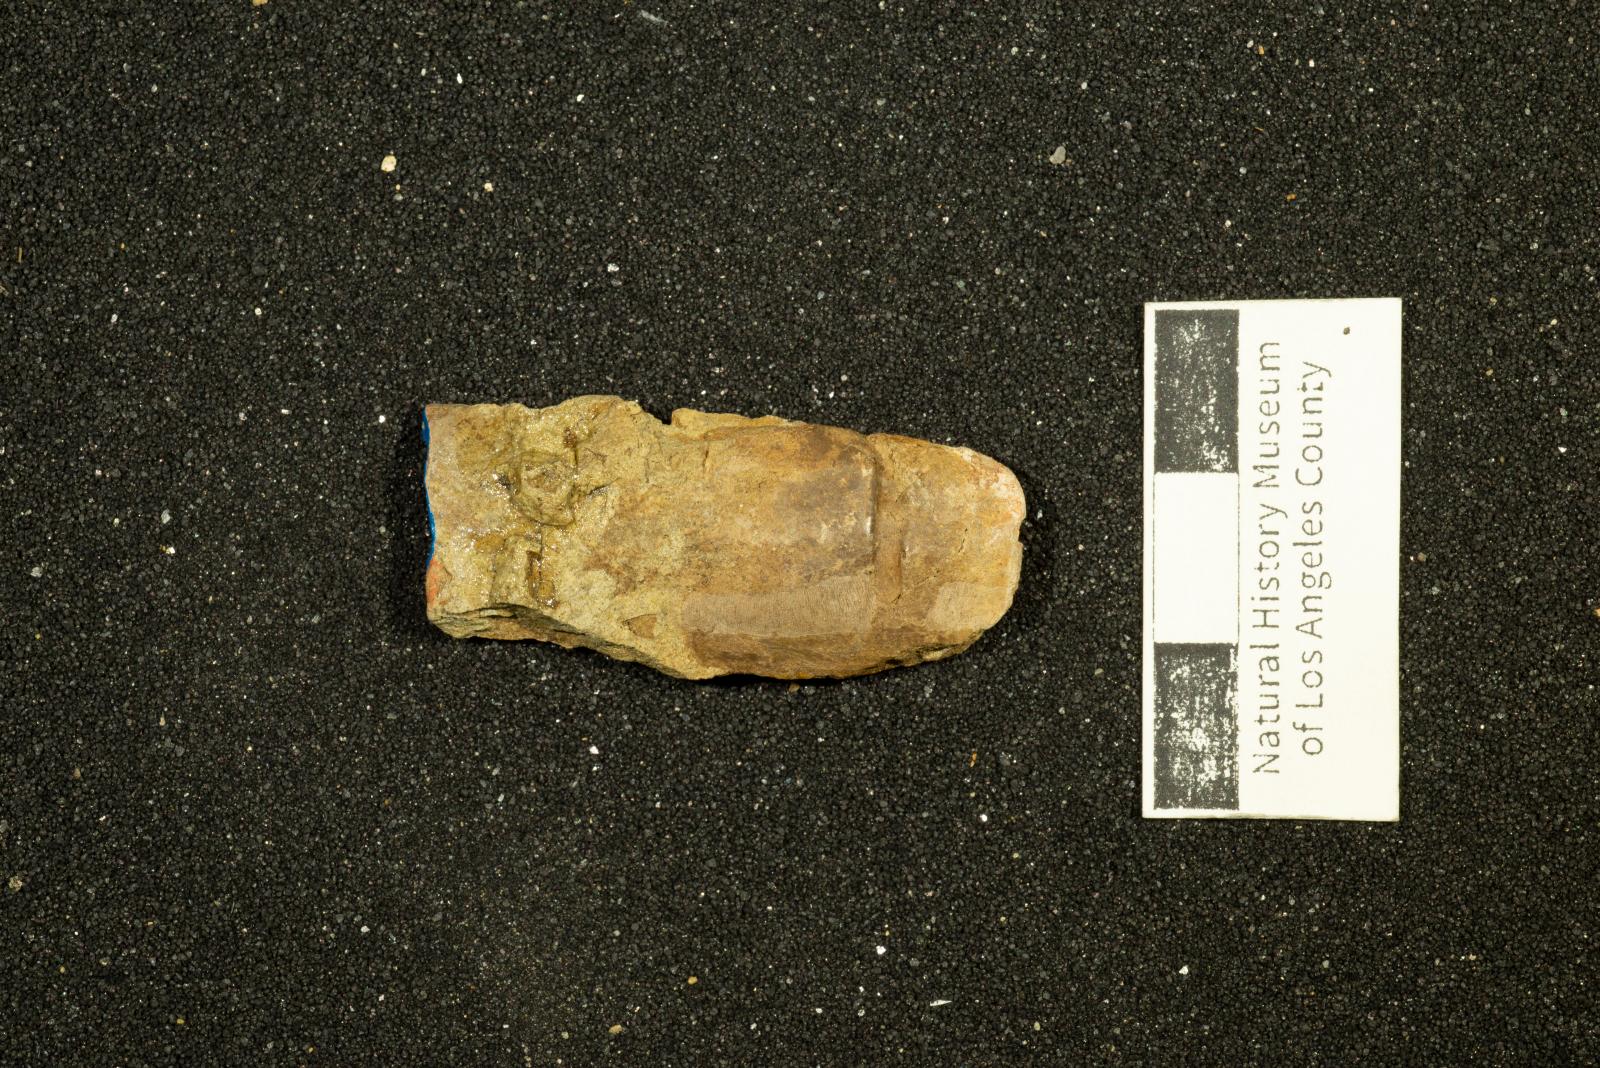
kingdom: Animalia
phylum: Mollusca
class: Bivalvia
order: Unionida
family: Iridinidae
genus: Leptosolen
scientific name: Leptosolen
